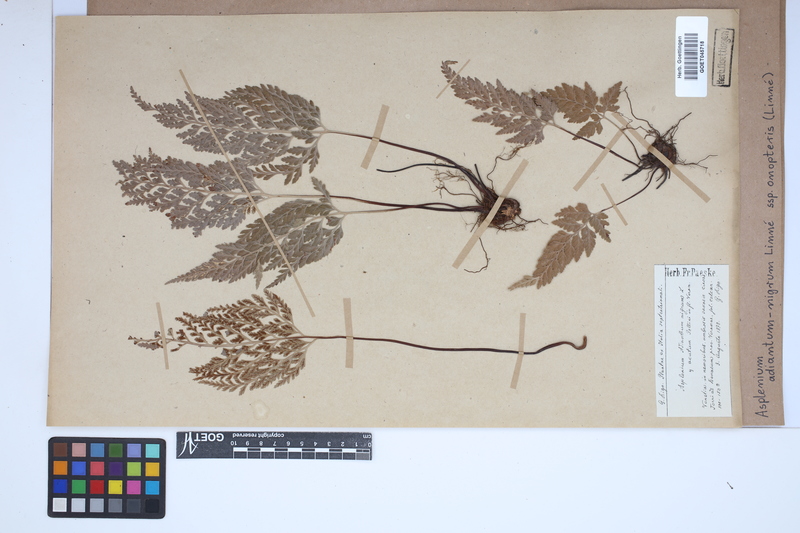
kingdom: Plantae
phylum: Tracheophyta
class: Polypodiopsida
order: Polypodiales
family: Aspleniaceae
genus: Asplenium
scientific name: Asplenium onopteris
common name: Irish spleenwort
